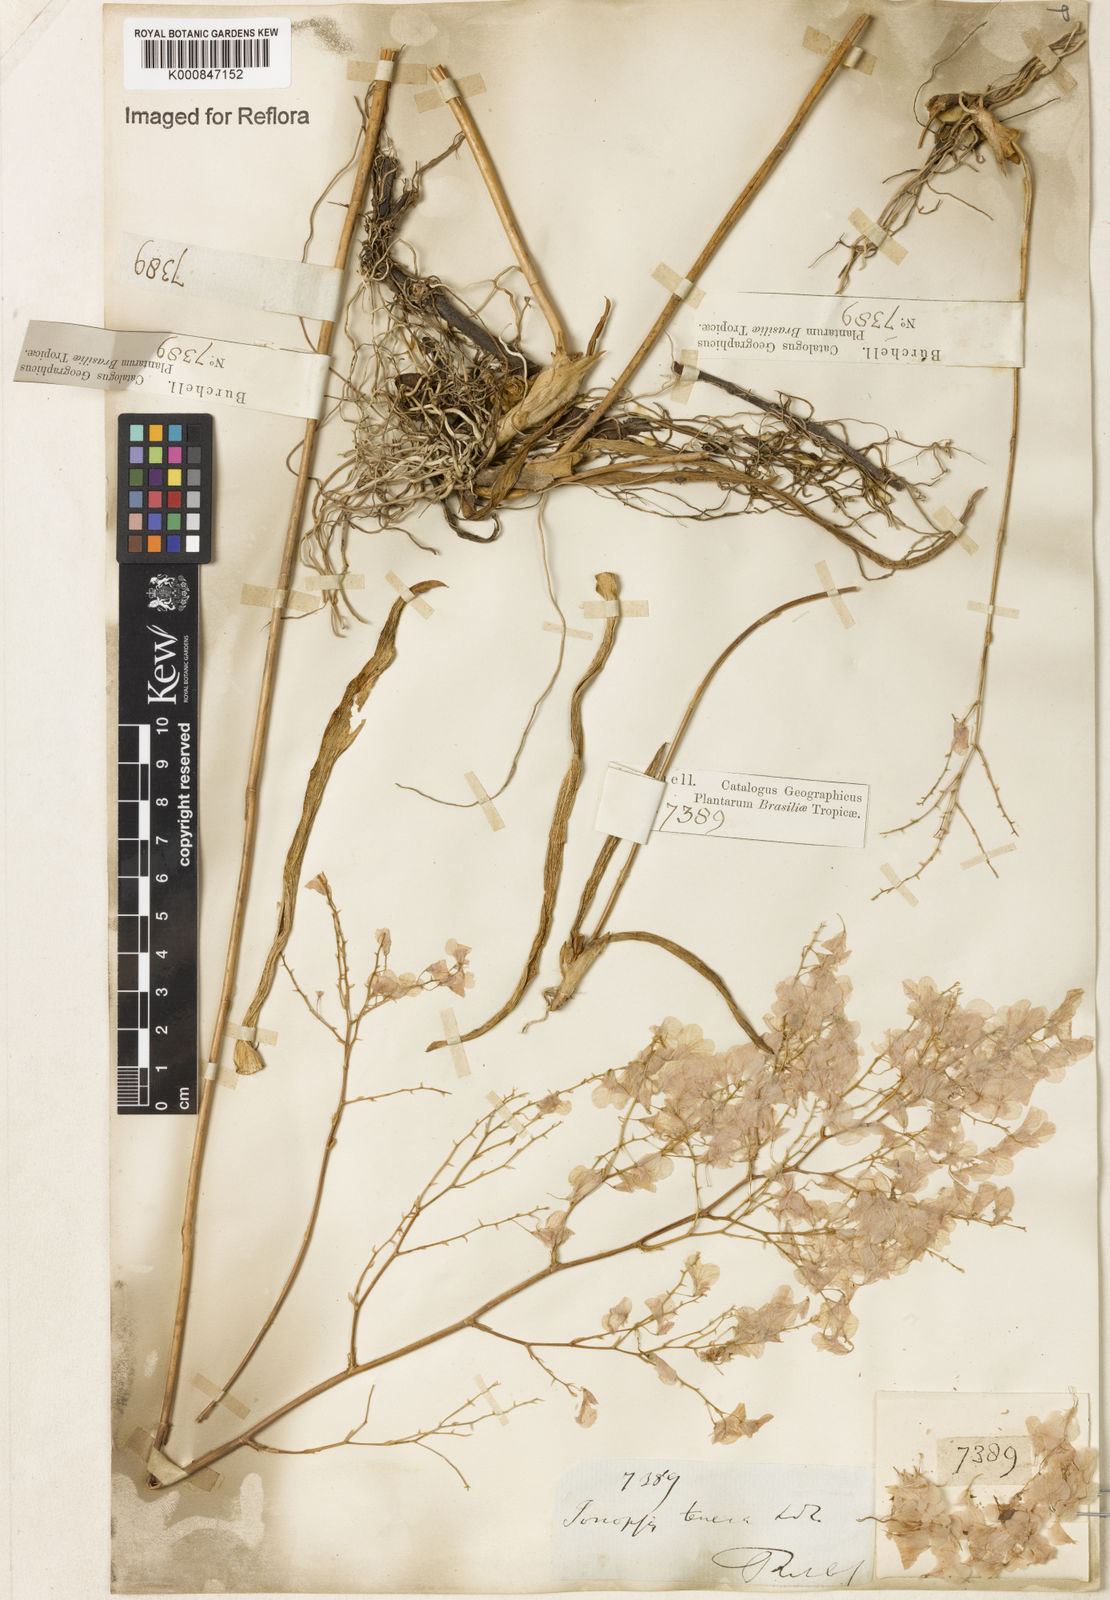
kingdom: Plantae
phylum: Tracheophyta
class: Liliopsida
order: Asparagales
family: Orchidaceae
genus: Ionopsis
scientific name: Ionopsis utricularioides
